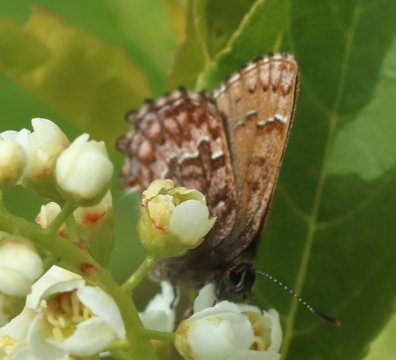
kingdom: Animalia
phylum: Arthropoda
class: Insecta
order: Lepidoptera
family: Lycaenidae
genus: Incisalia
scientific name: Incisalia niphon
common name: Eastern Pine Elfin
